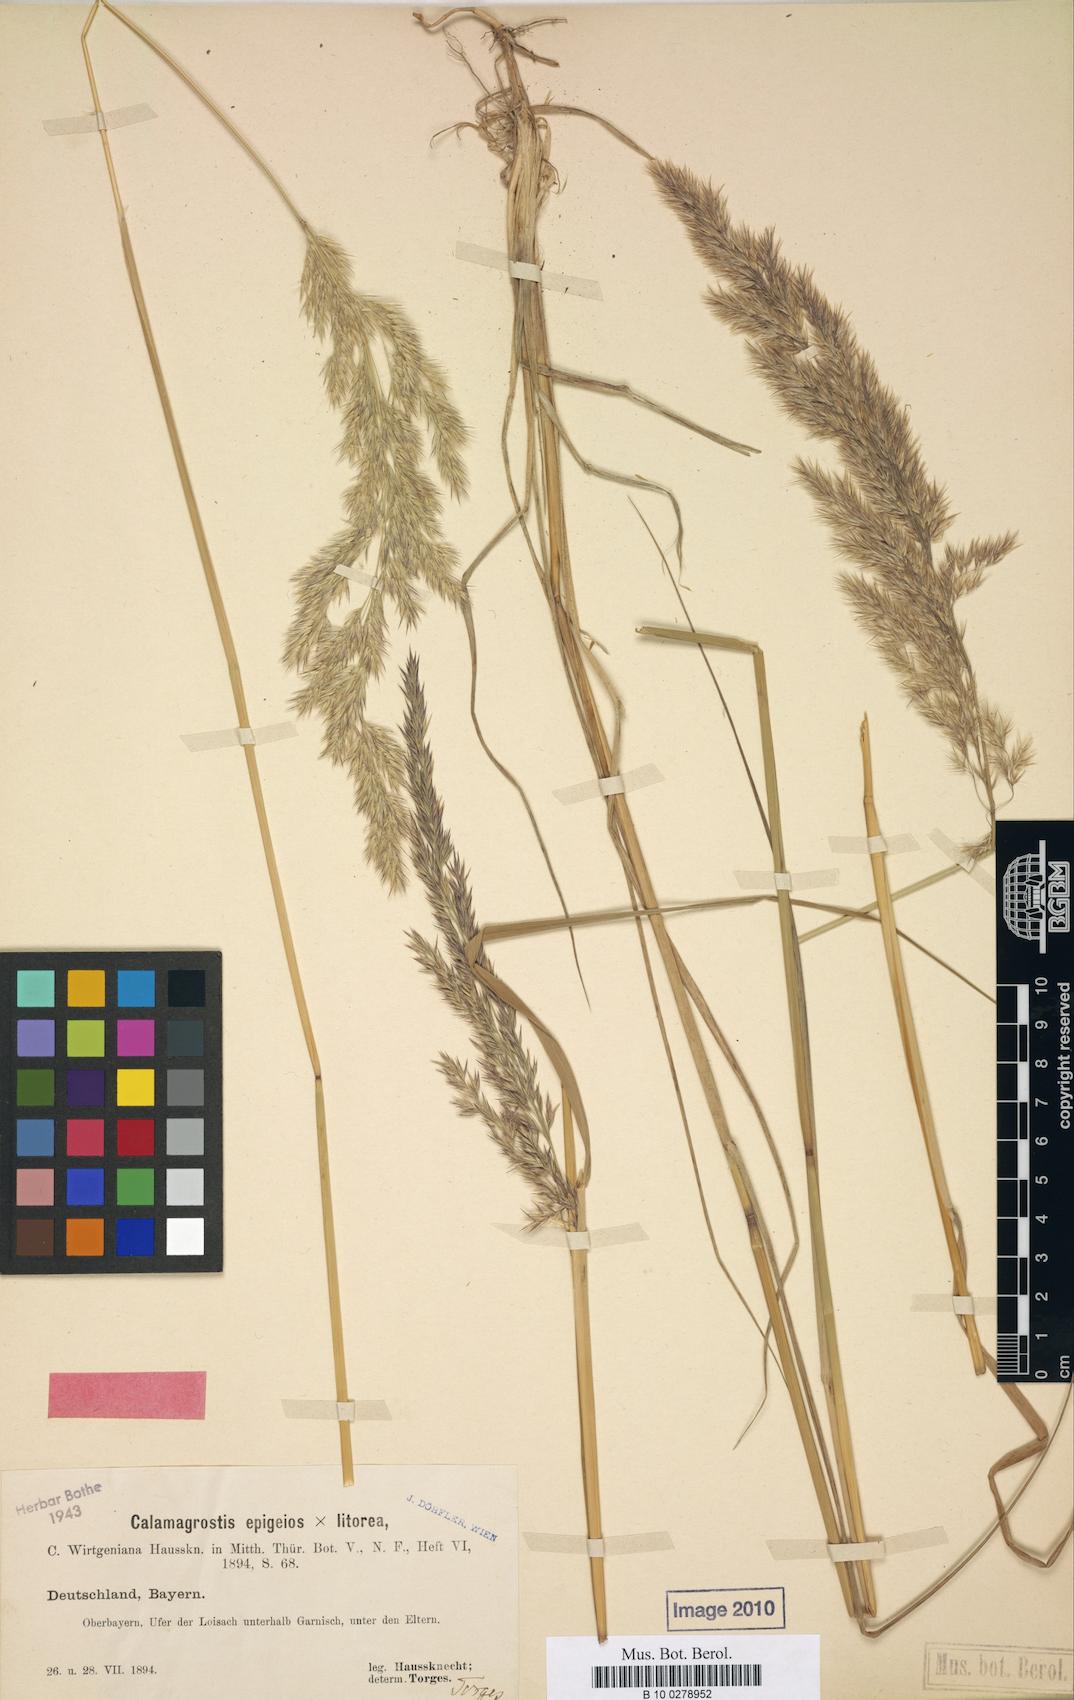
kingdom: Plantae
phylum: Tracheophyta
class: Liliopsida
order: Poales
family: Poaceae
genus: Calamagrostis
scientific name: Calamagrostis wirtgeniana
